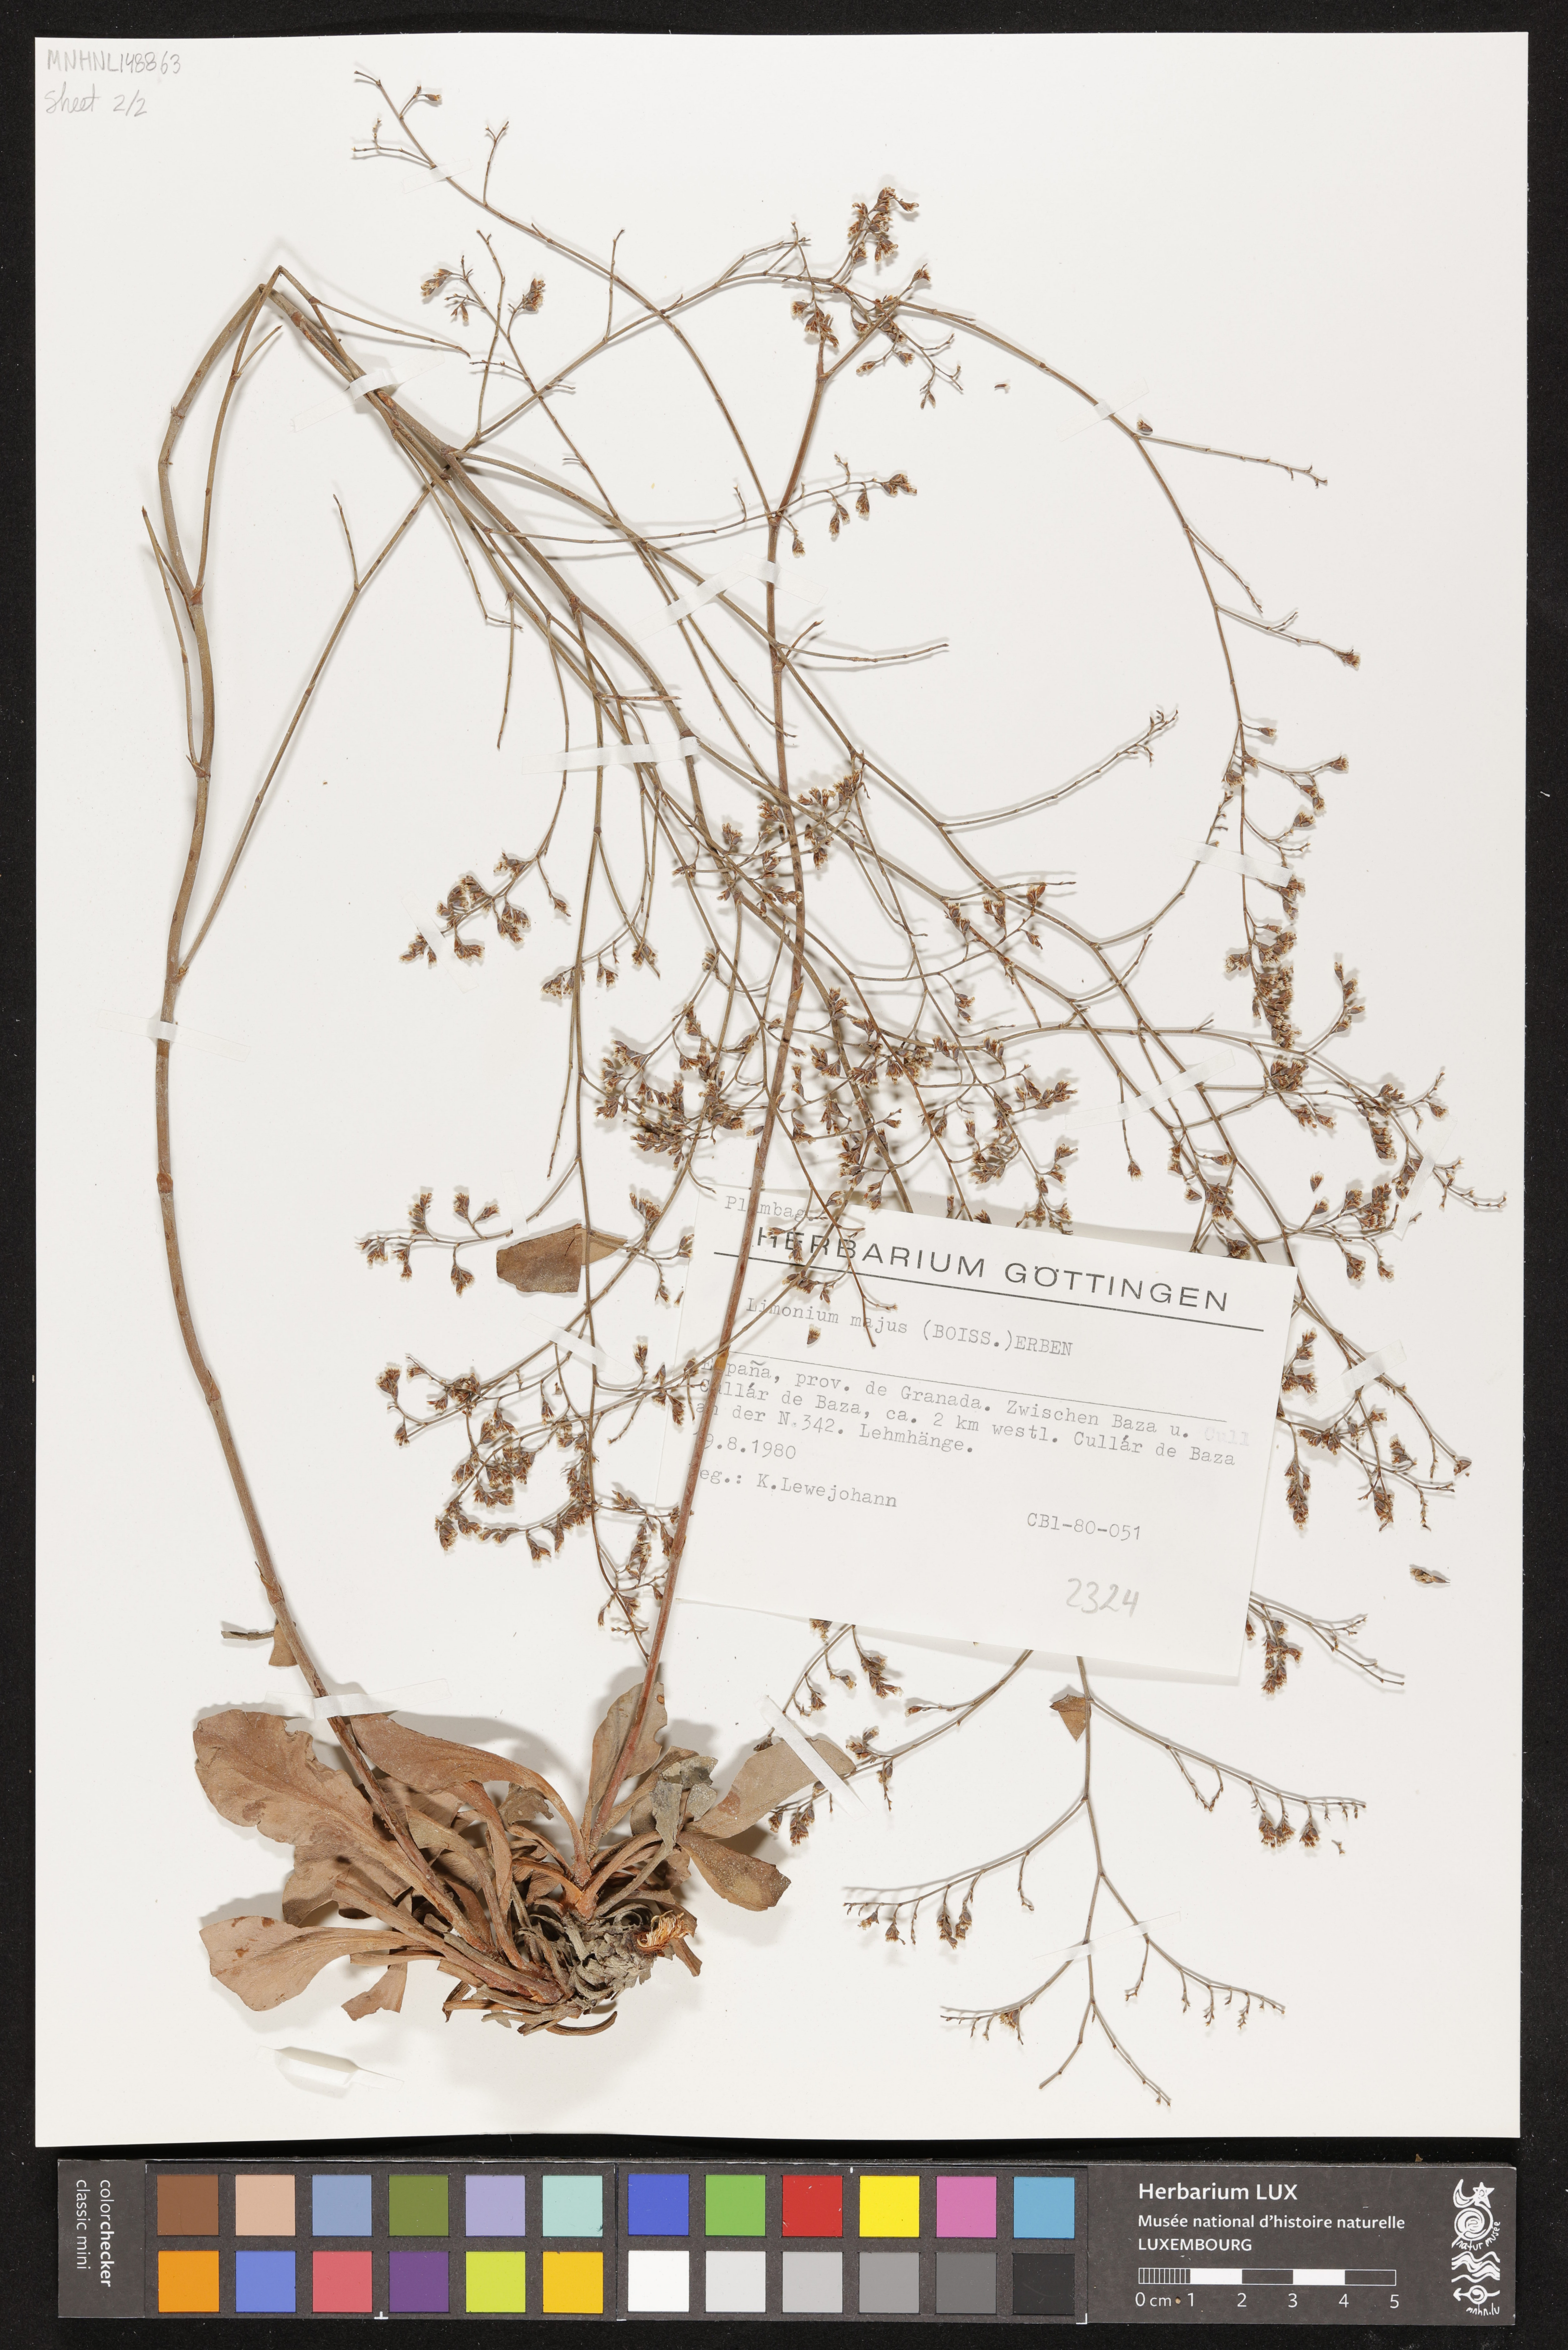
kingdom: Plantae
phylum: Tracheophyta
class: Magnoliopsida
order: Caryophyllales
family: Plumbaginaceae
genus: Limonium
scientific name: Limonium majus
